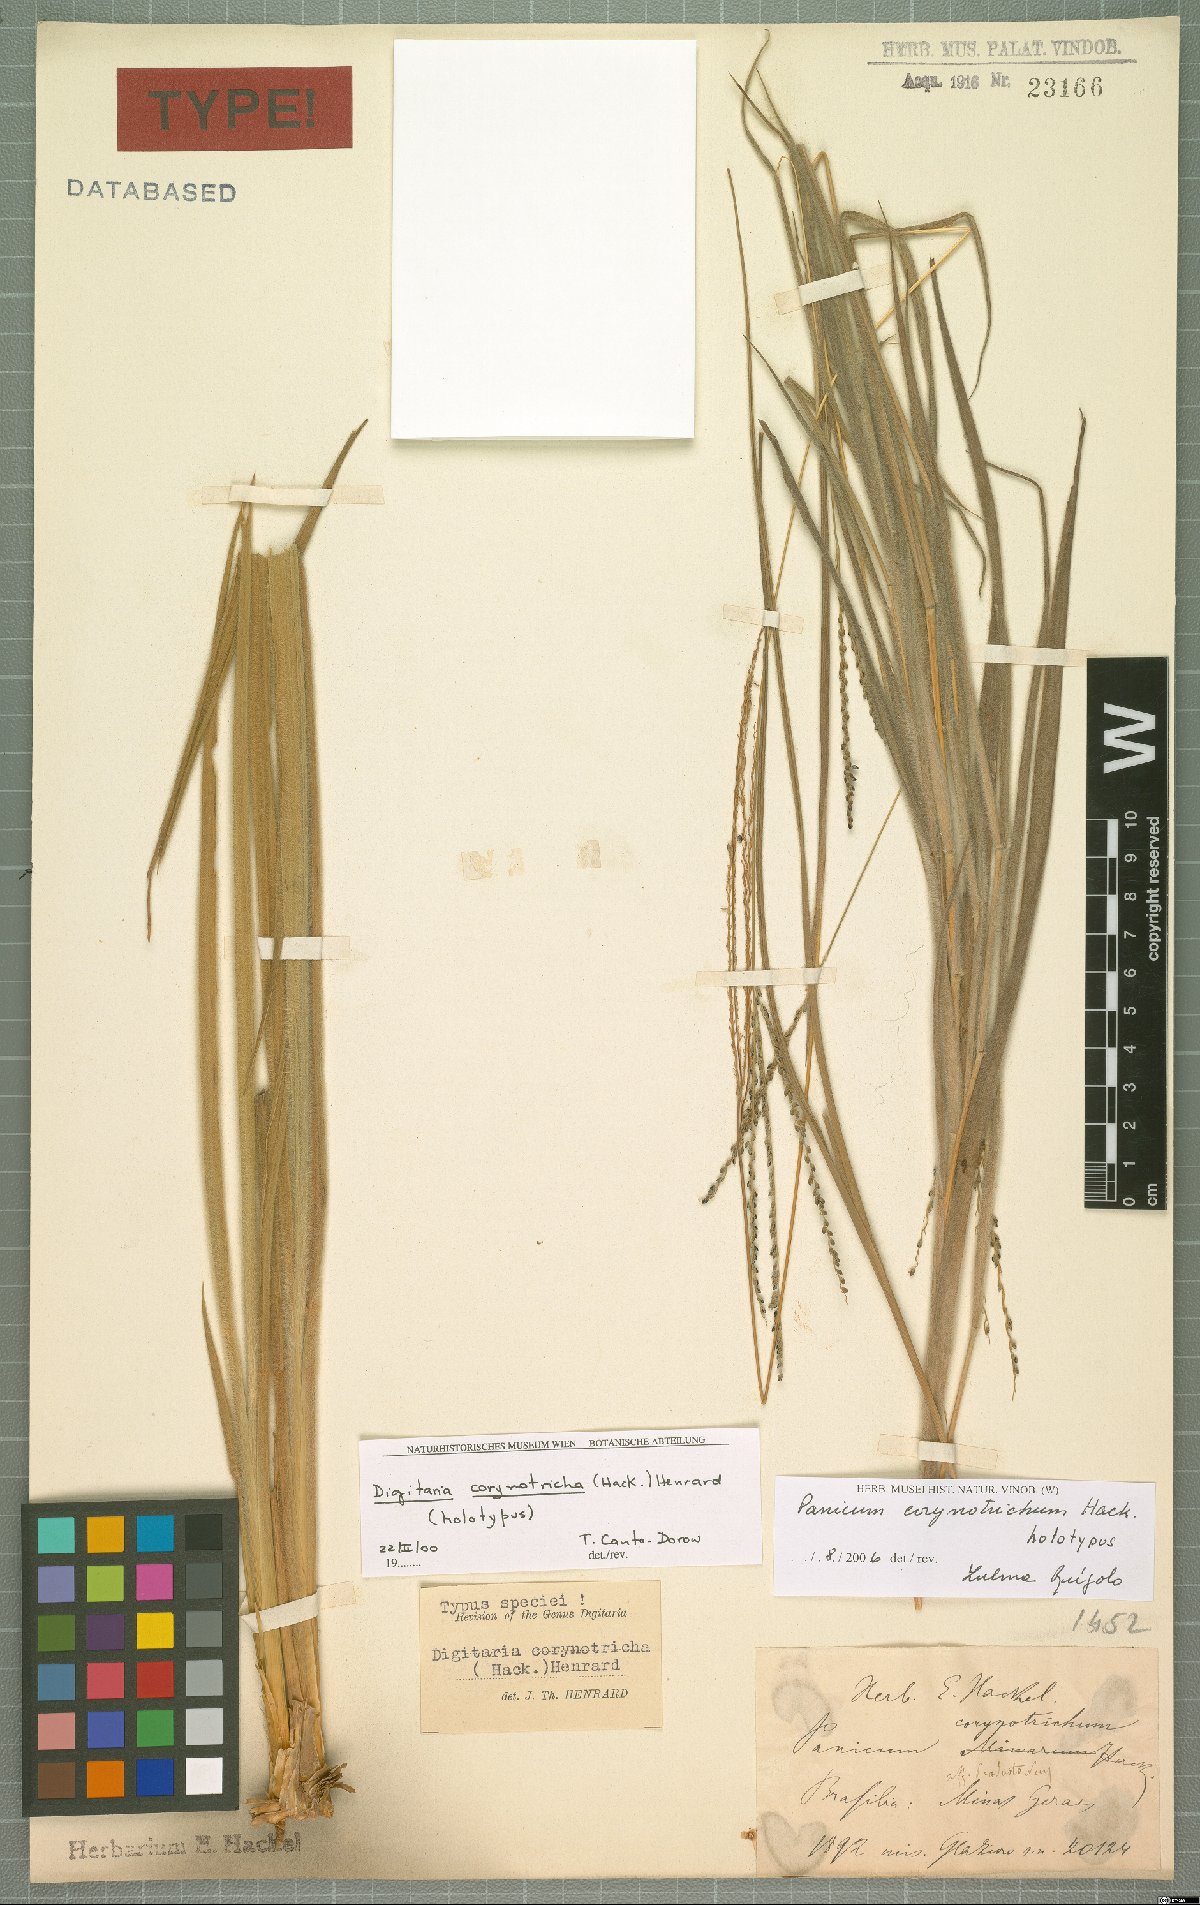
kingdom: Plantae
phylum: Tracheophyta
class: Liliopsida
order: Poales
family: Poaceae
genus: Digitaria
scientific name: Digitaria corynotricha
